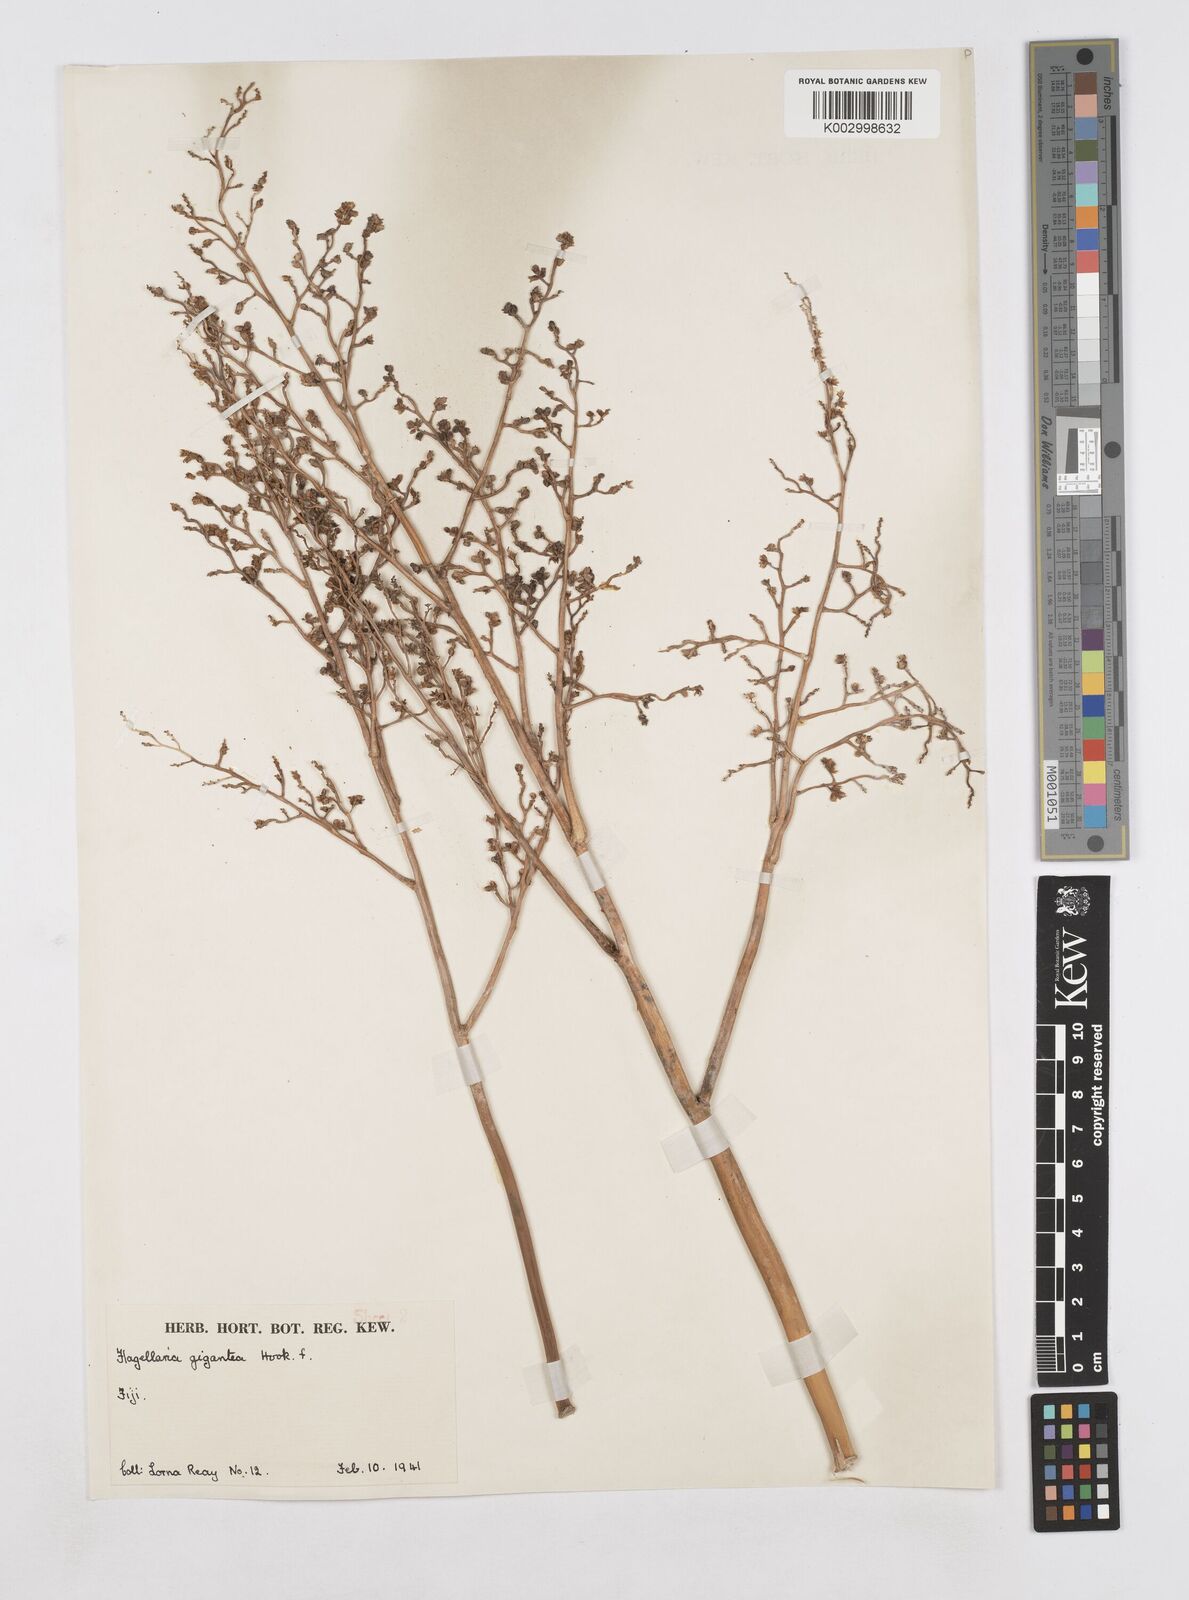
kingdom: Plantae
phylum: Tracheophyta
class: Liliopsida
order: Poales
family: Flagellariaceae
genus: Flagellaria
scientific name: Flagellaria gigantea
